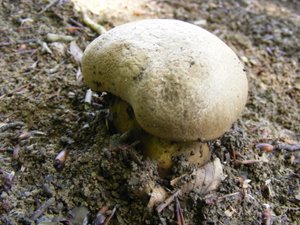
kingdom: Fungi
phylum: Basidiomycota
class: Agaricomycetes
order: Boletales
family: Boletaceae
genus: Caloboletus
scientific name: Caloboletus radicans
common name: rod-rørhat
